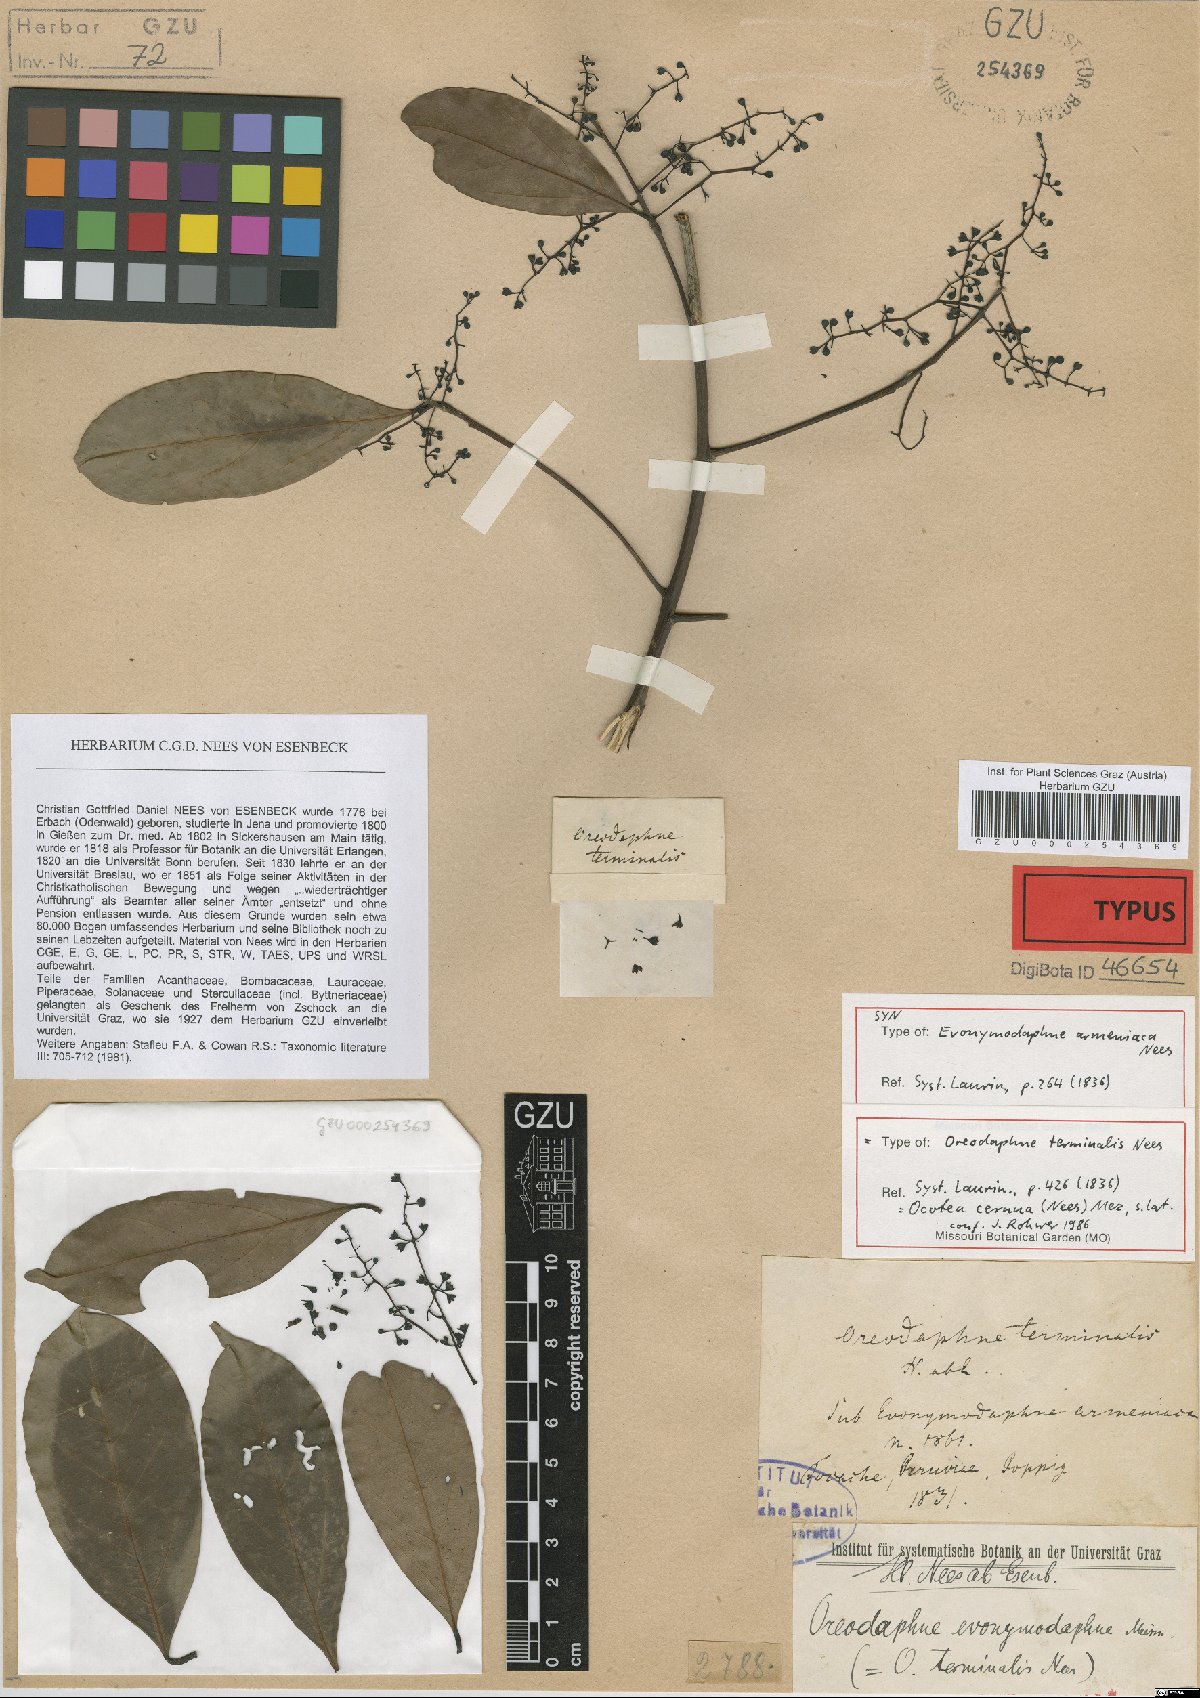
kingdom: Plantae
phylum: Tracheophyta
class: Magnoliopsida
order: Laurales
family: Lauraceae
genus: Ocotea
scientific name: Ocotea leptobotra
